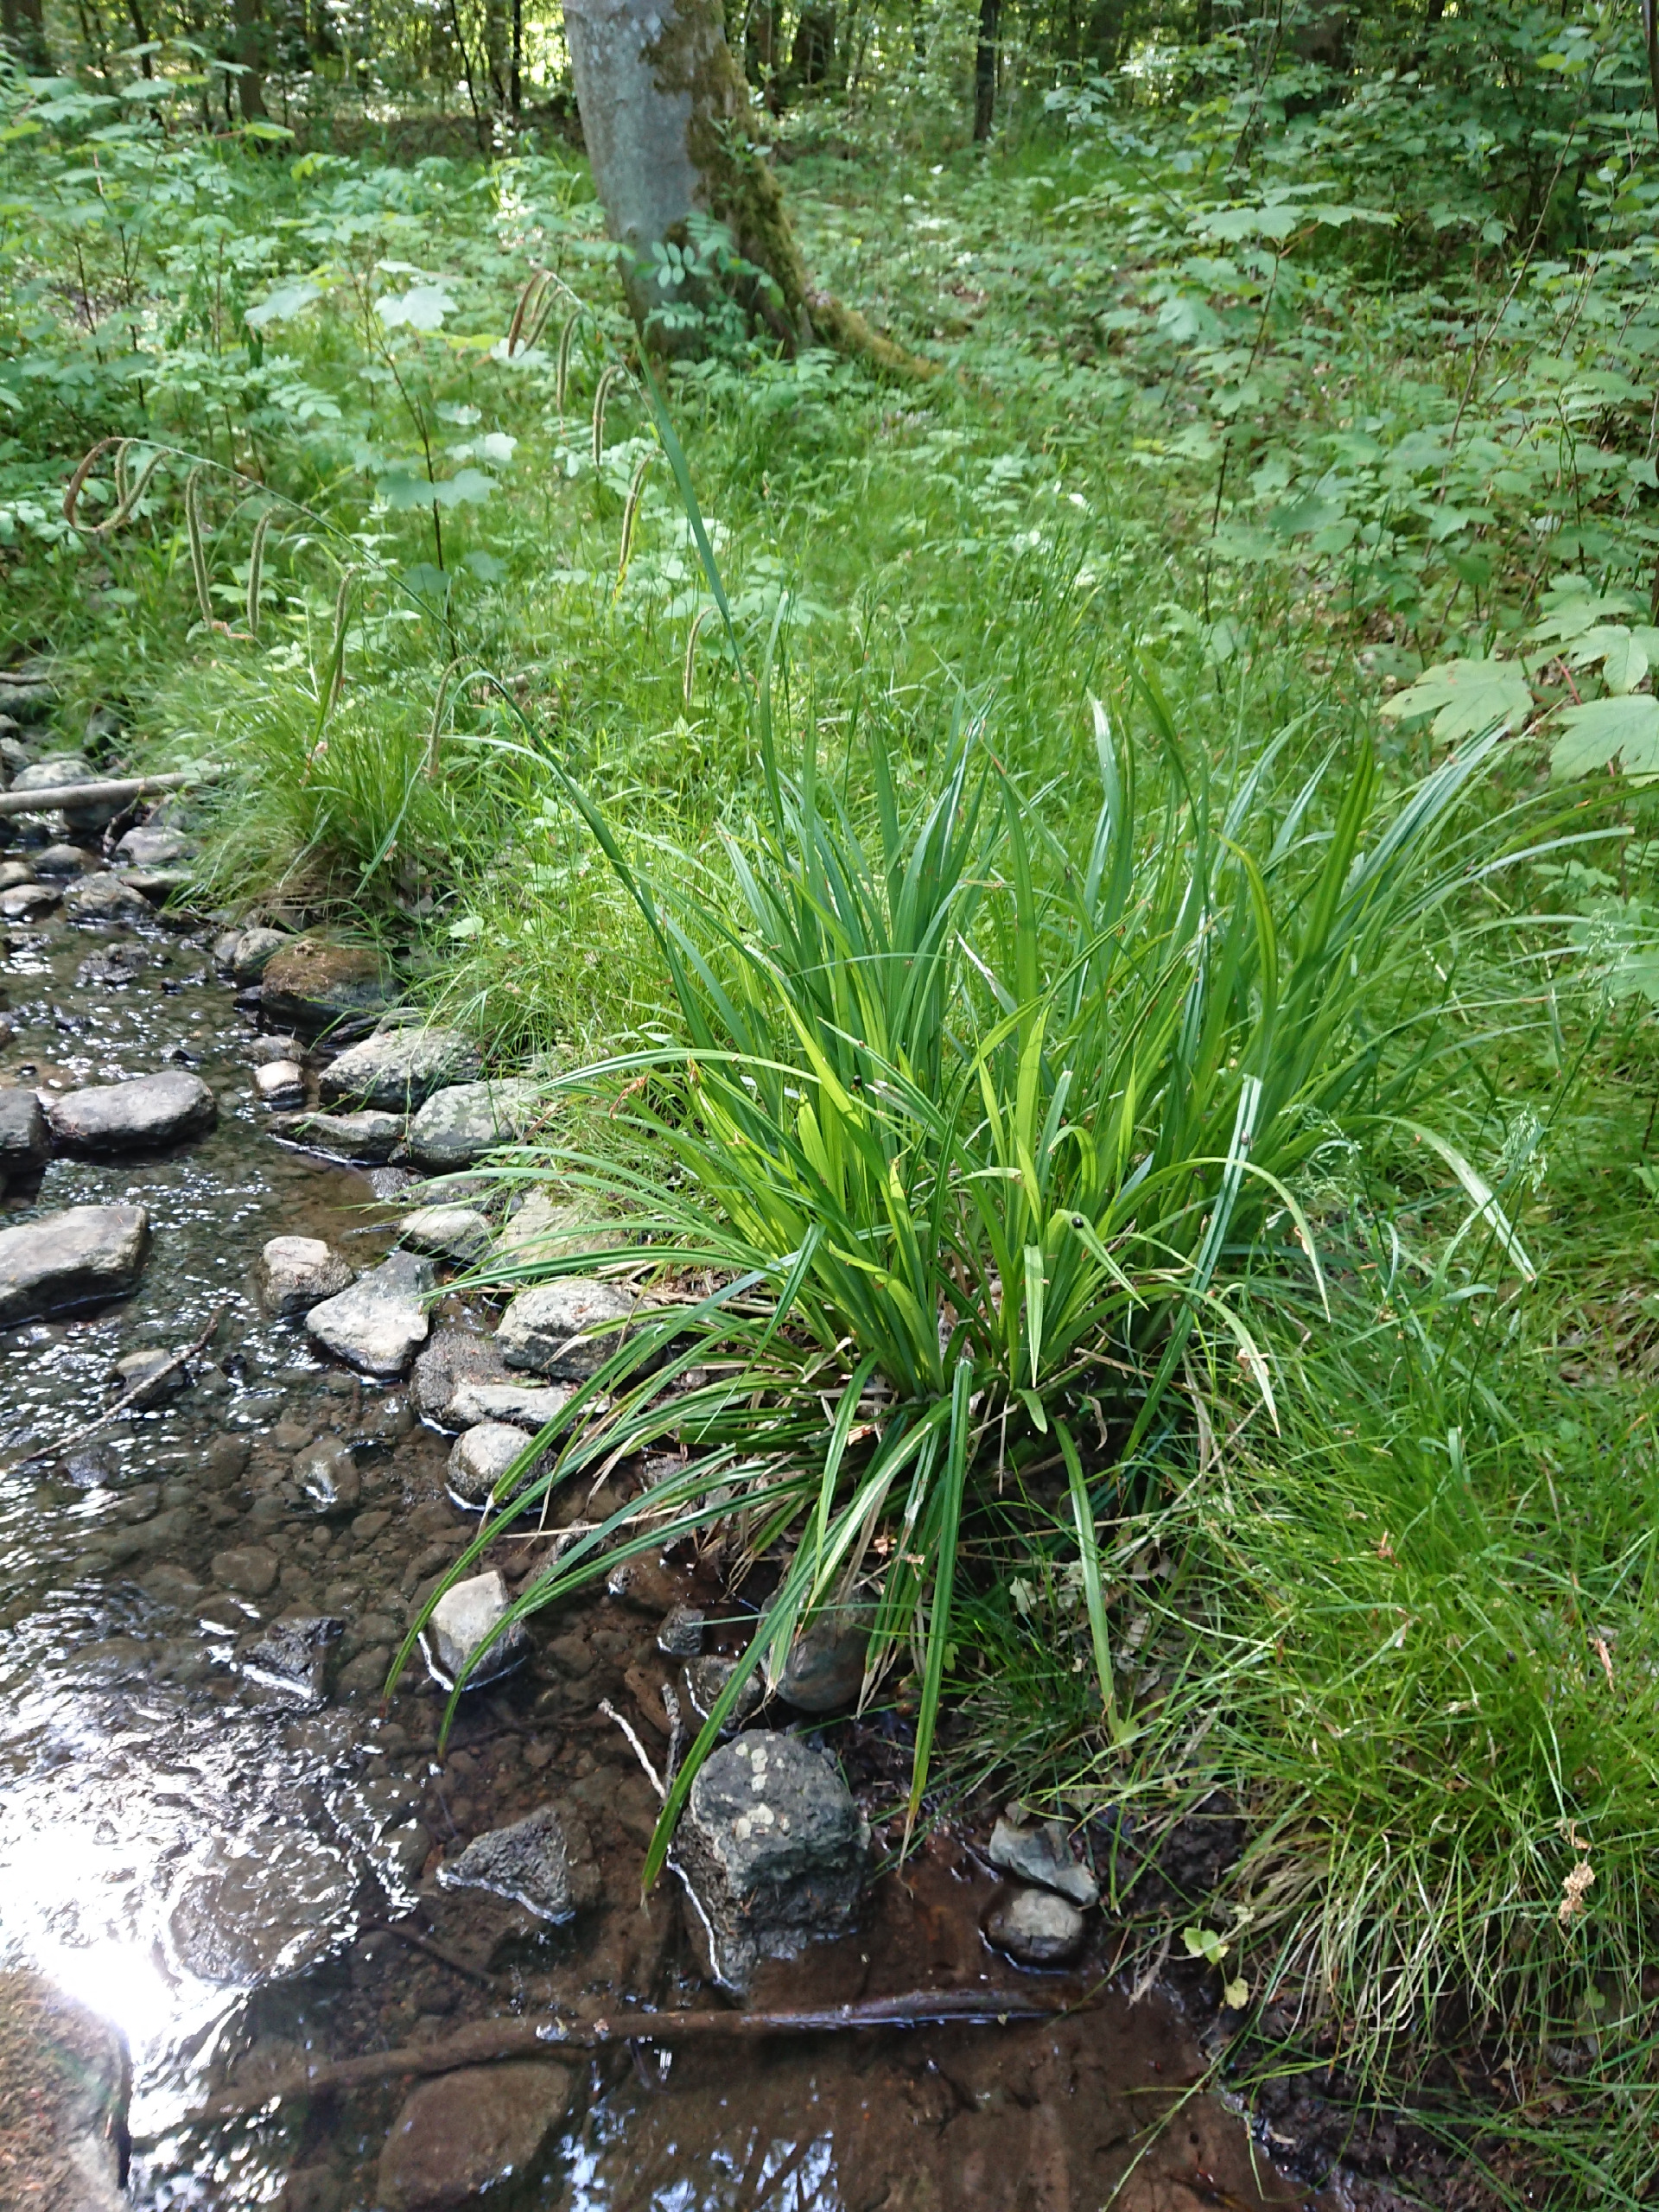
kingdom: Plantae
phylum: Tracheophyta
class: Liliopsida
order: Poales
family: Cyperaceae
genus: Carex
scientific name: Carex pendula
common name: Kæmpe-star
